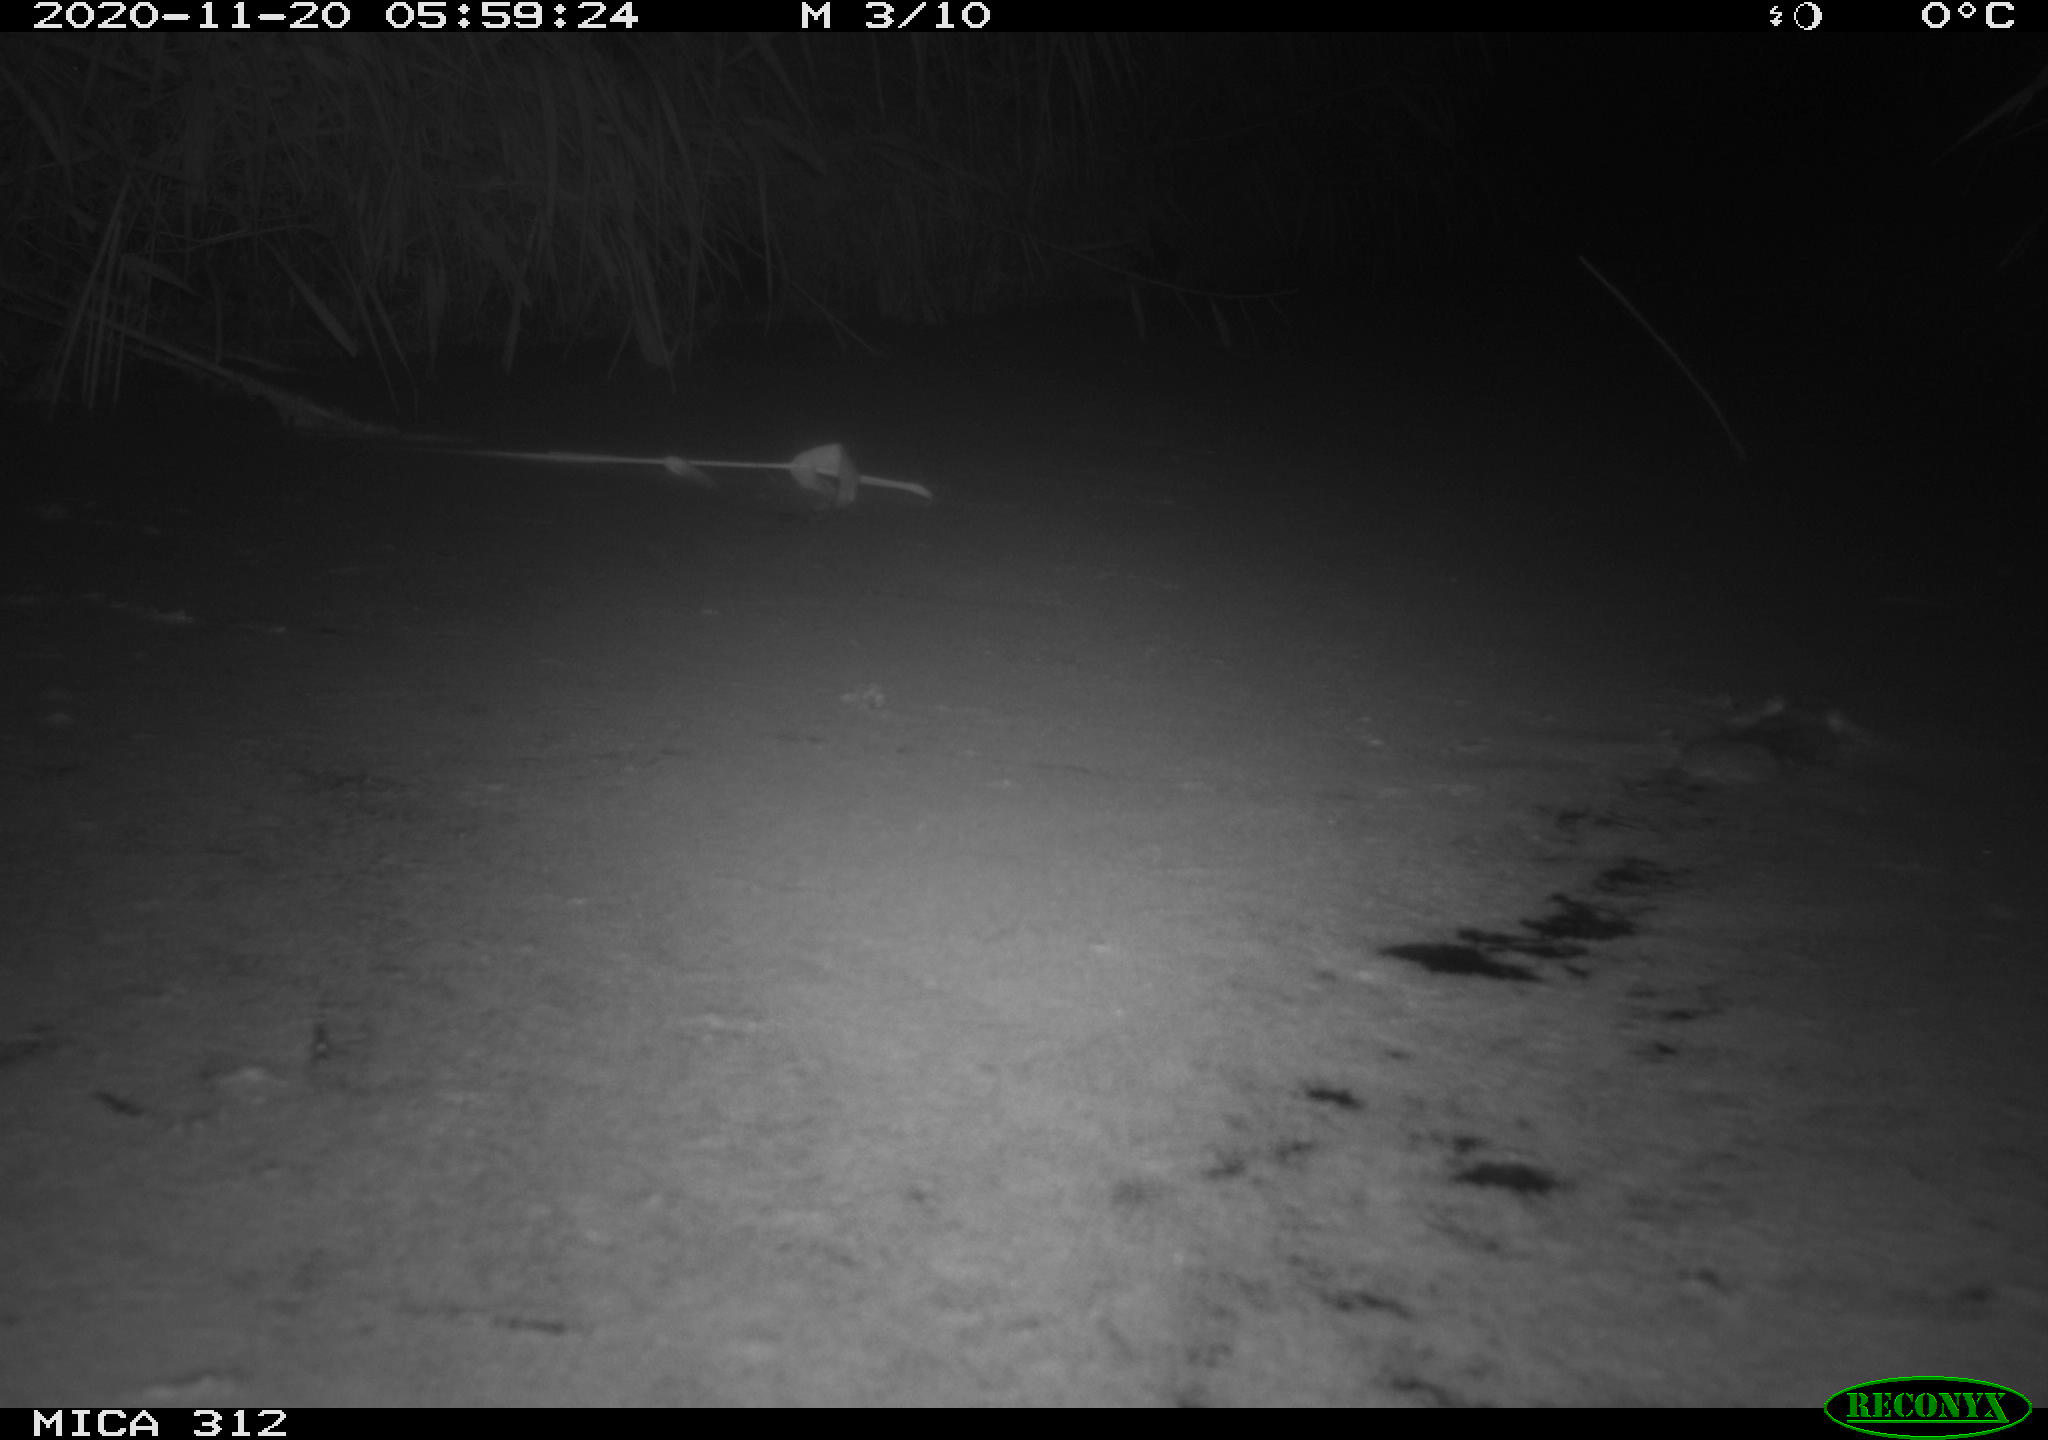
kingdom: Animalia
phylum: Chordata
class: Mammalia
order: Rodentia
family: Muridae
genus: Rattus
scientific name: Rattus norvegicus
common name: Brown rat
